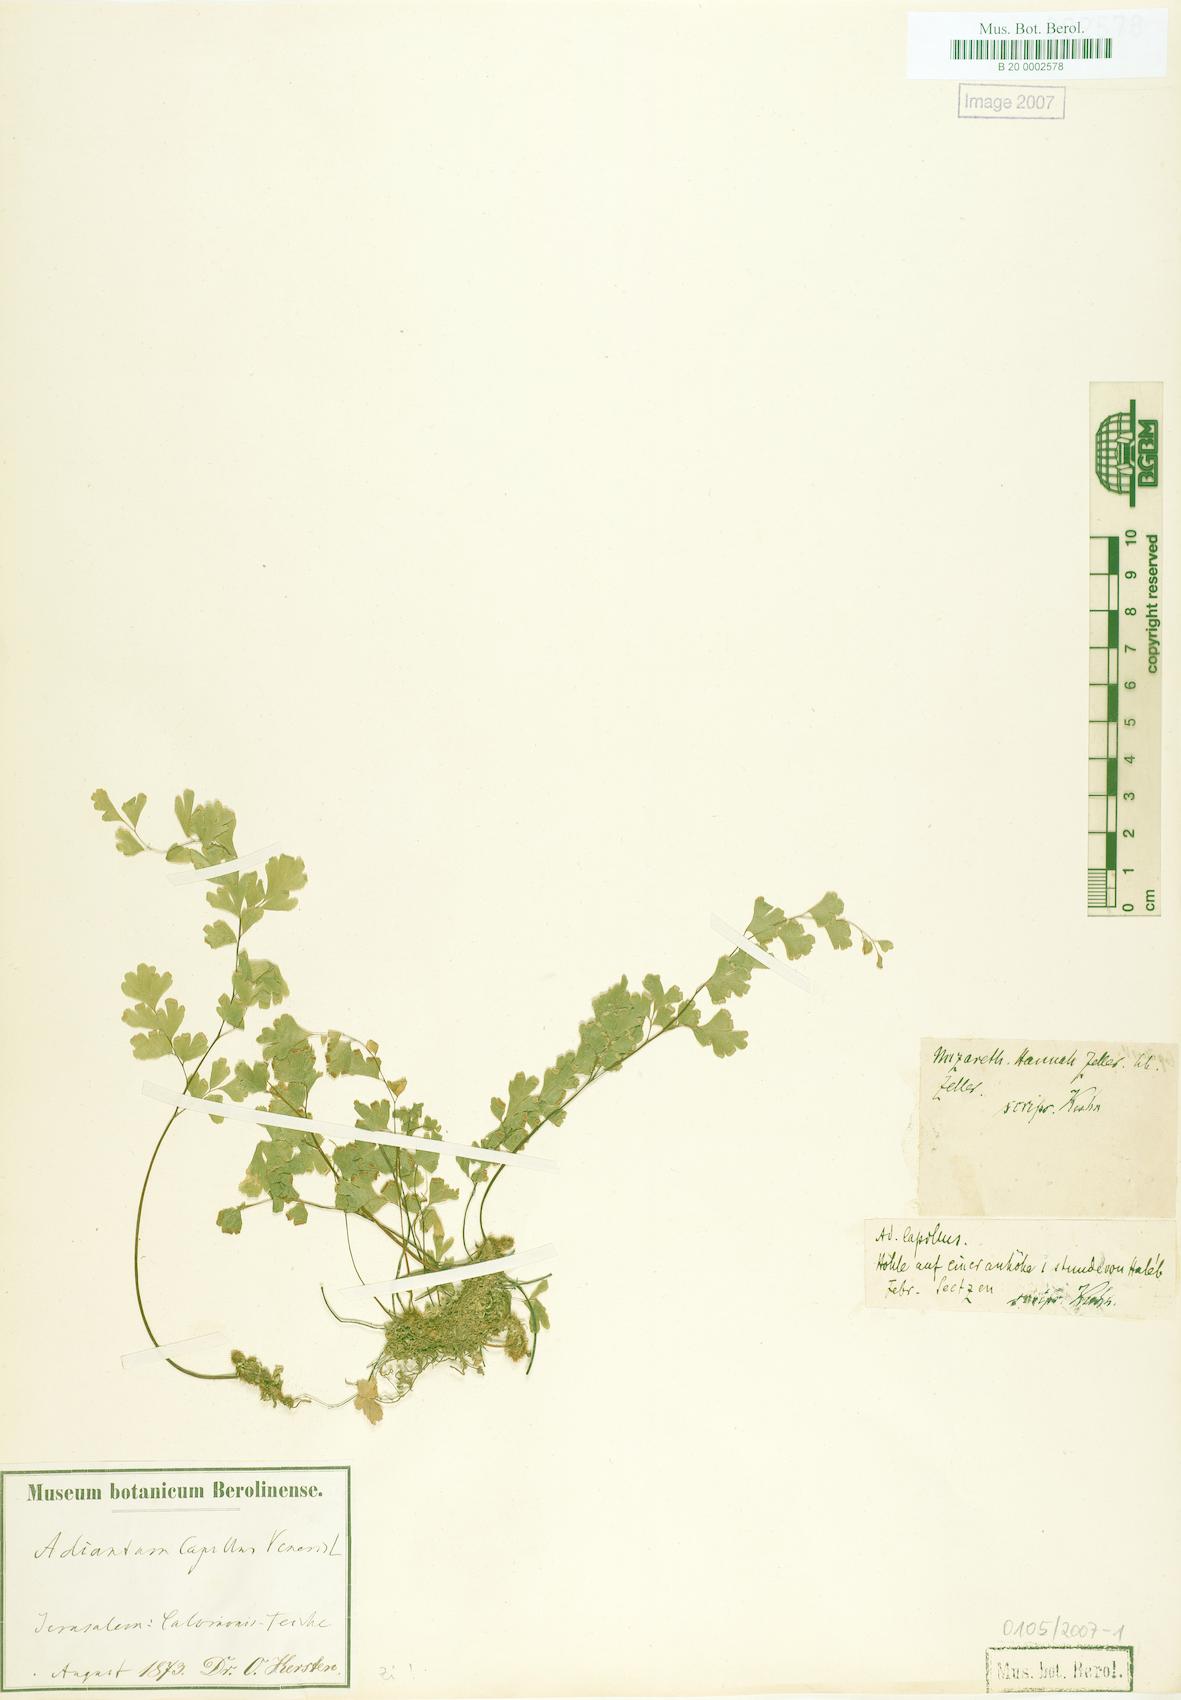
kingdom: Plantae
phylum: Tracheophyta
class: Polypodiopsida
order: Polypodiales
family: Pteridaceae
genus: Adiantum
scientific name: Adiantum capillus-veneris
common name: Maidenhair fern
